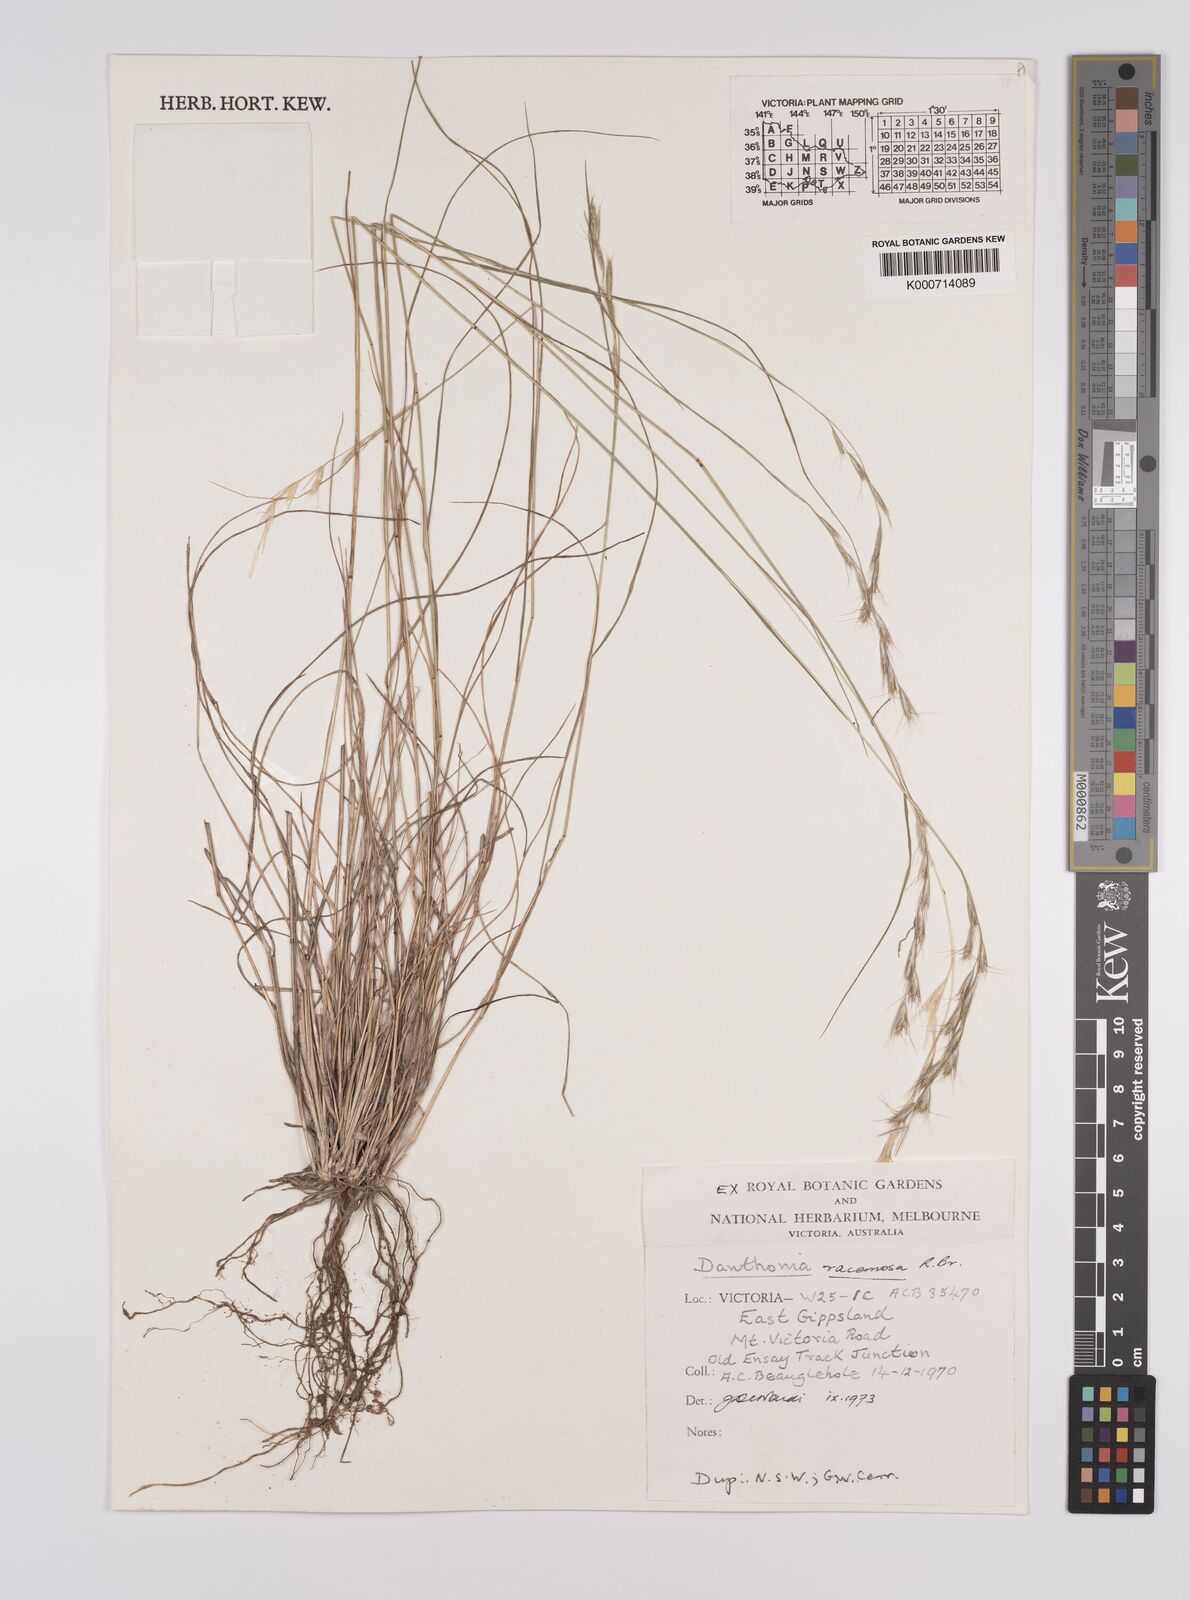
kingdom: Plantae
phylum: Tracheophyta
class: Liliopsida
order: Poales
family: Poaceae
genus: Rytidosperma
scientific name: Rytidosperma racemosum
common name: Wallaby-grass
